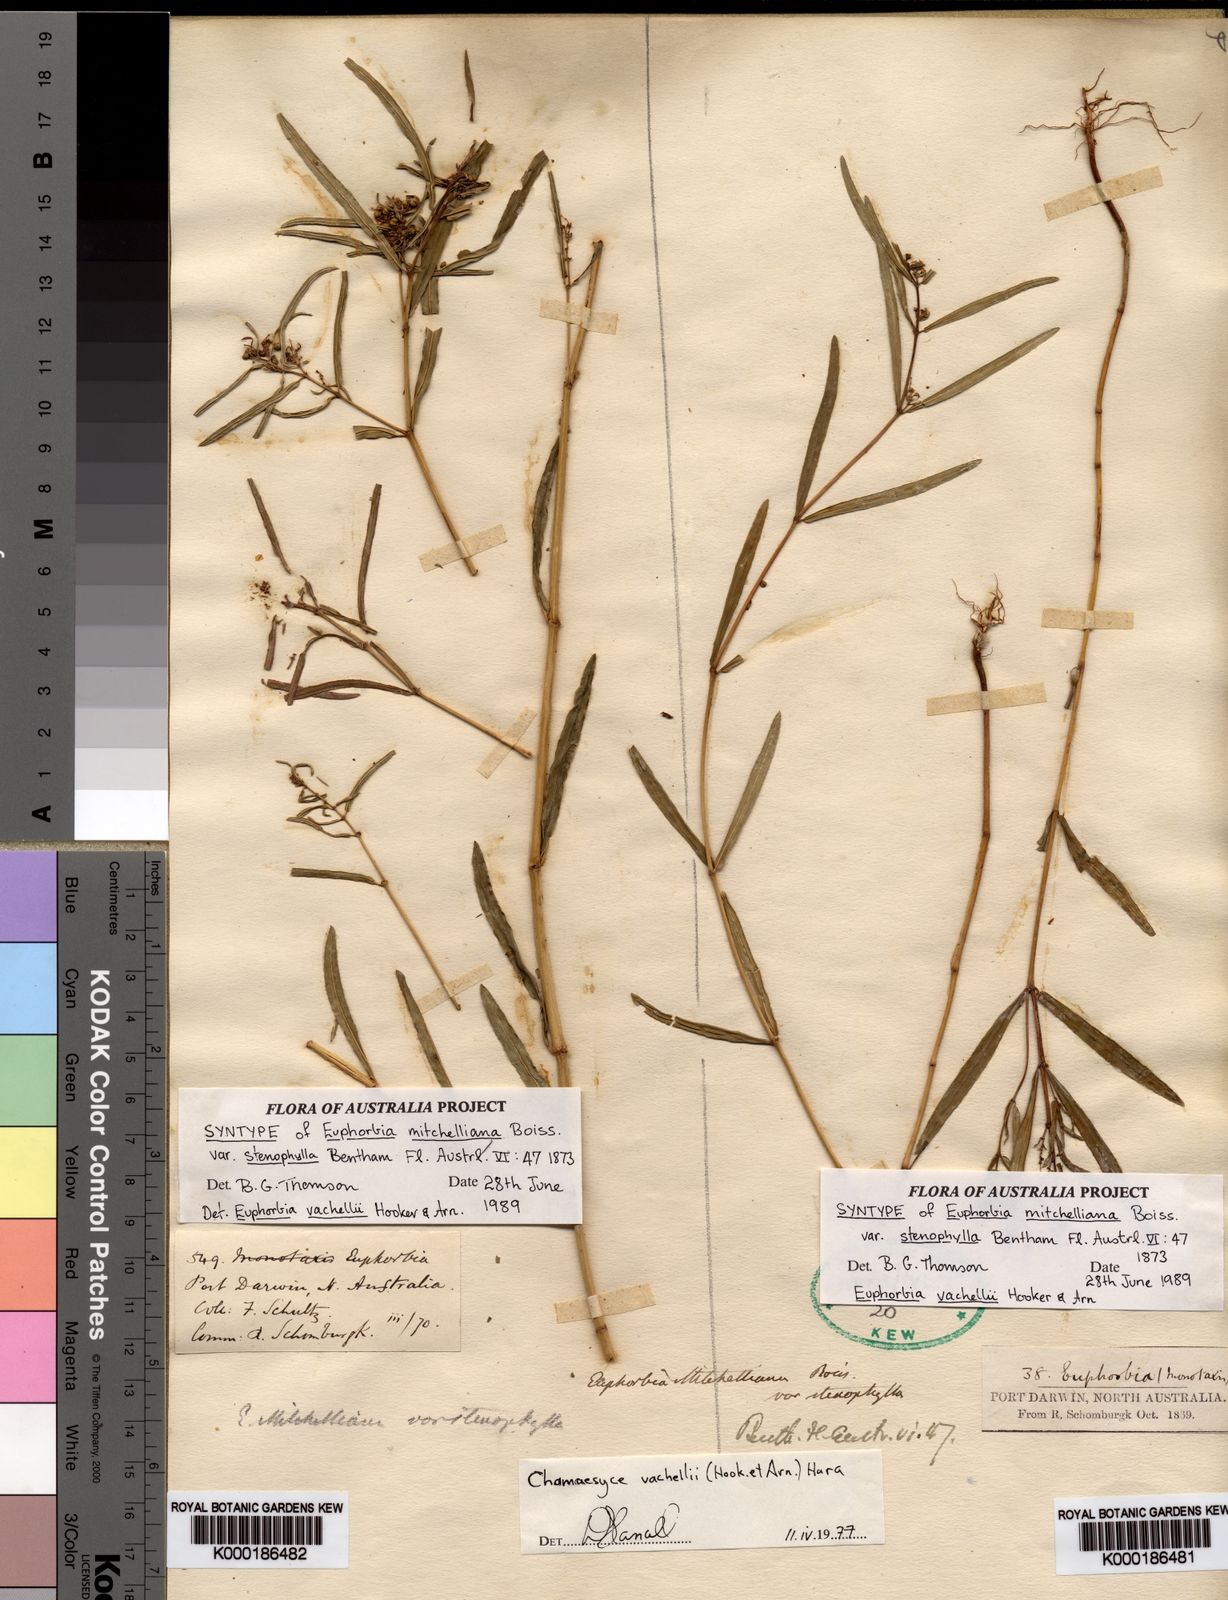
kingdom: Plantae
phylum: Tracheophyta
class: Magnoliopsida
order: Malpighiales
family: Euphorbiaceae
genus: Euphorbia
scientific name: Euphorbia bifida
